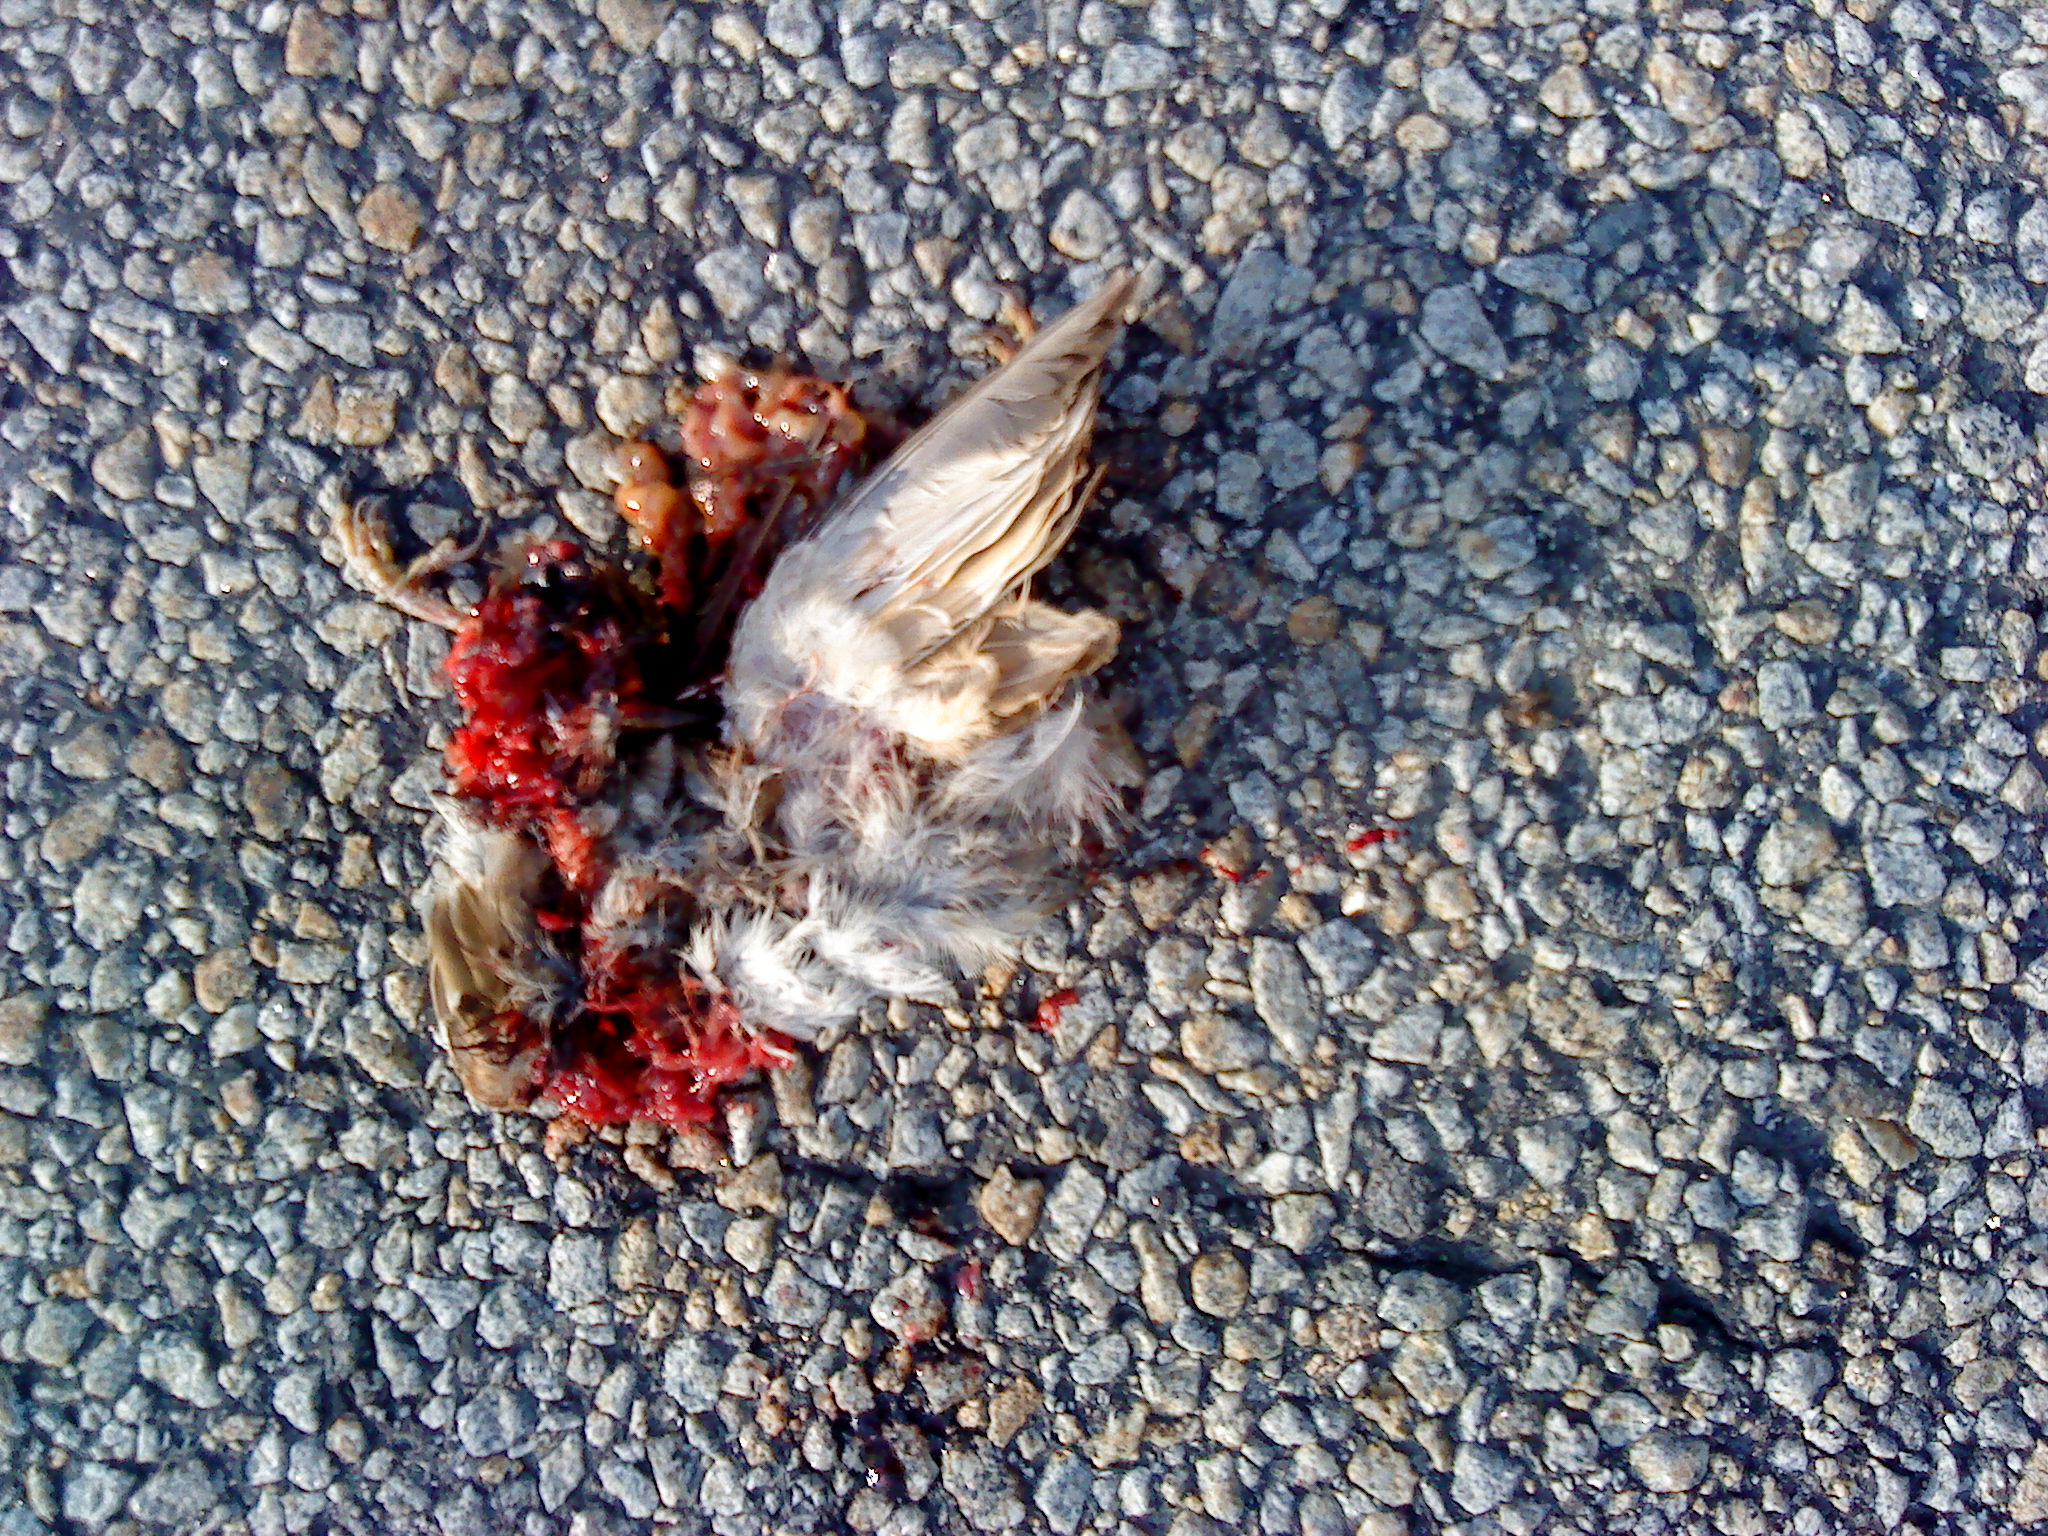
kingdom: Animalia
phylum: Chordata
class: Aves
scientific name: Aves
